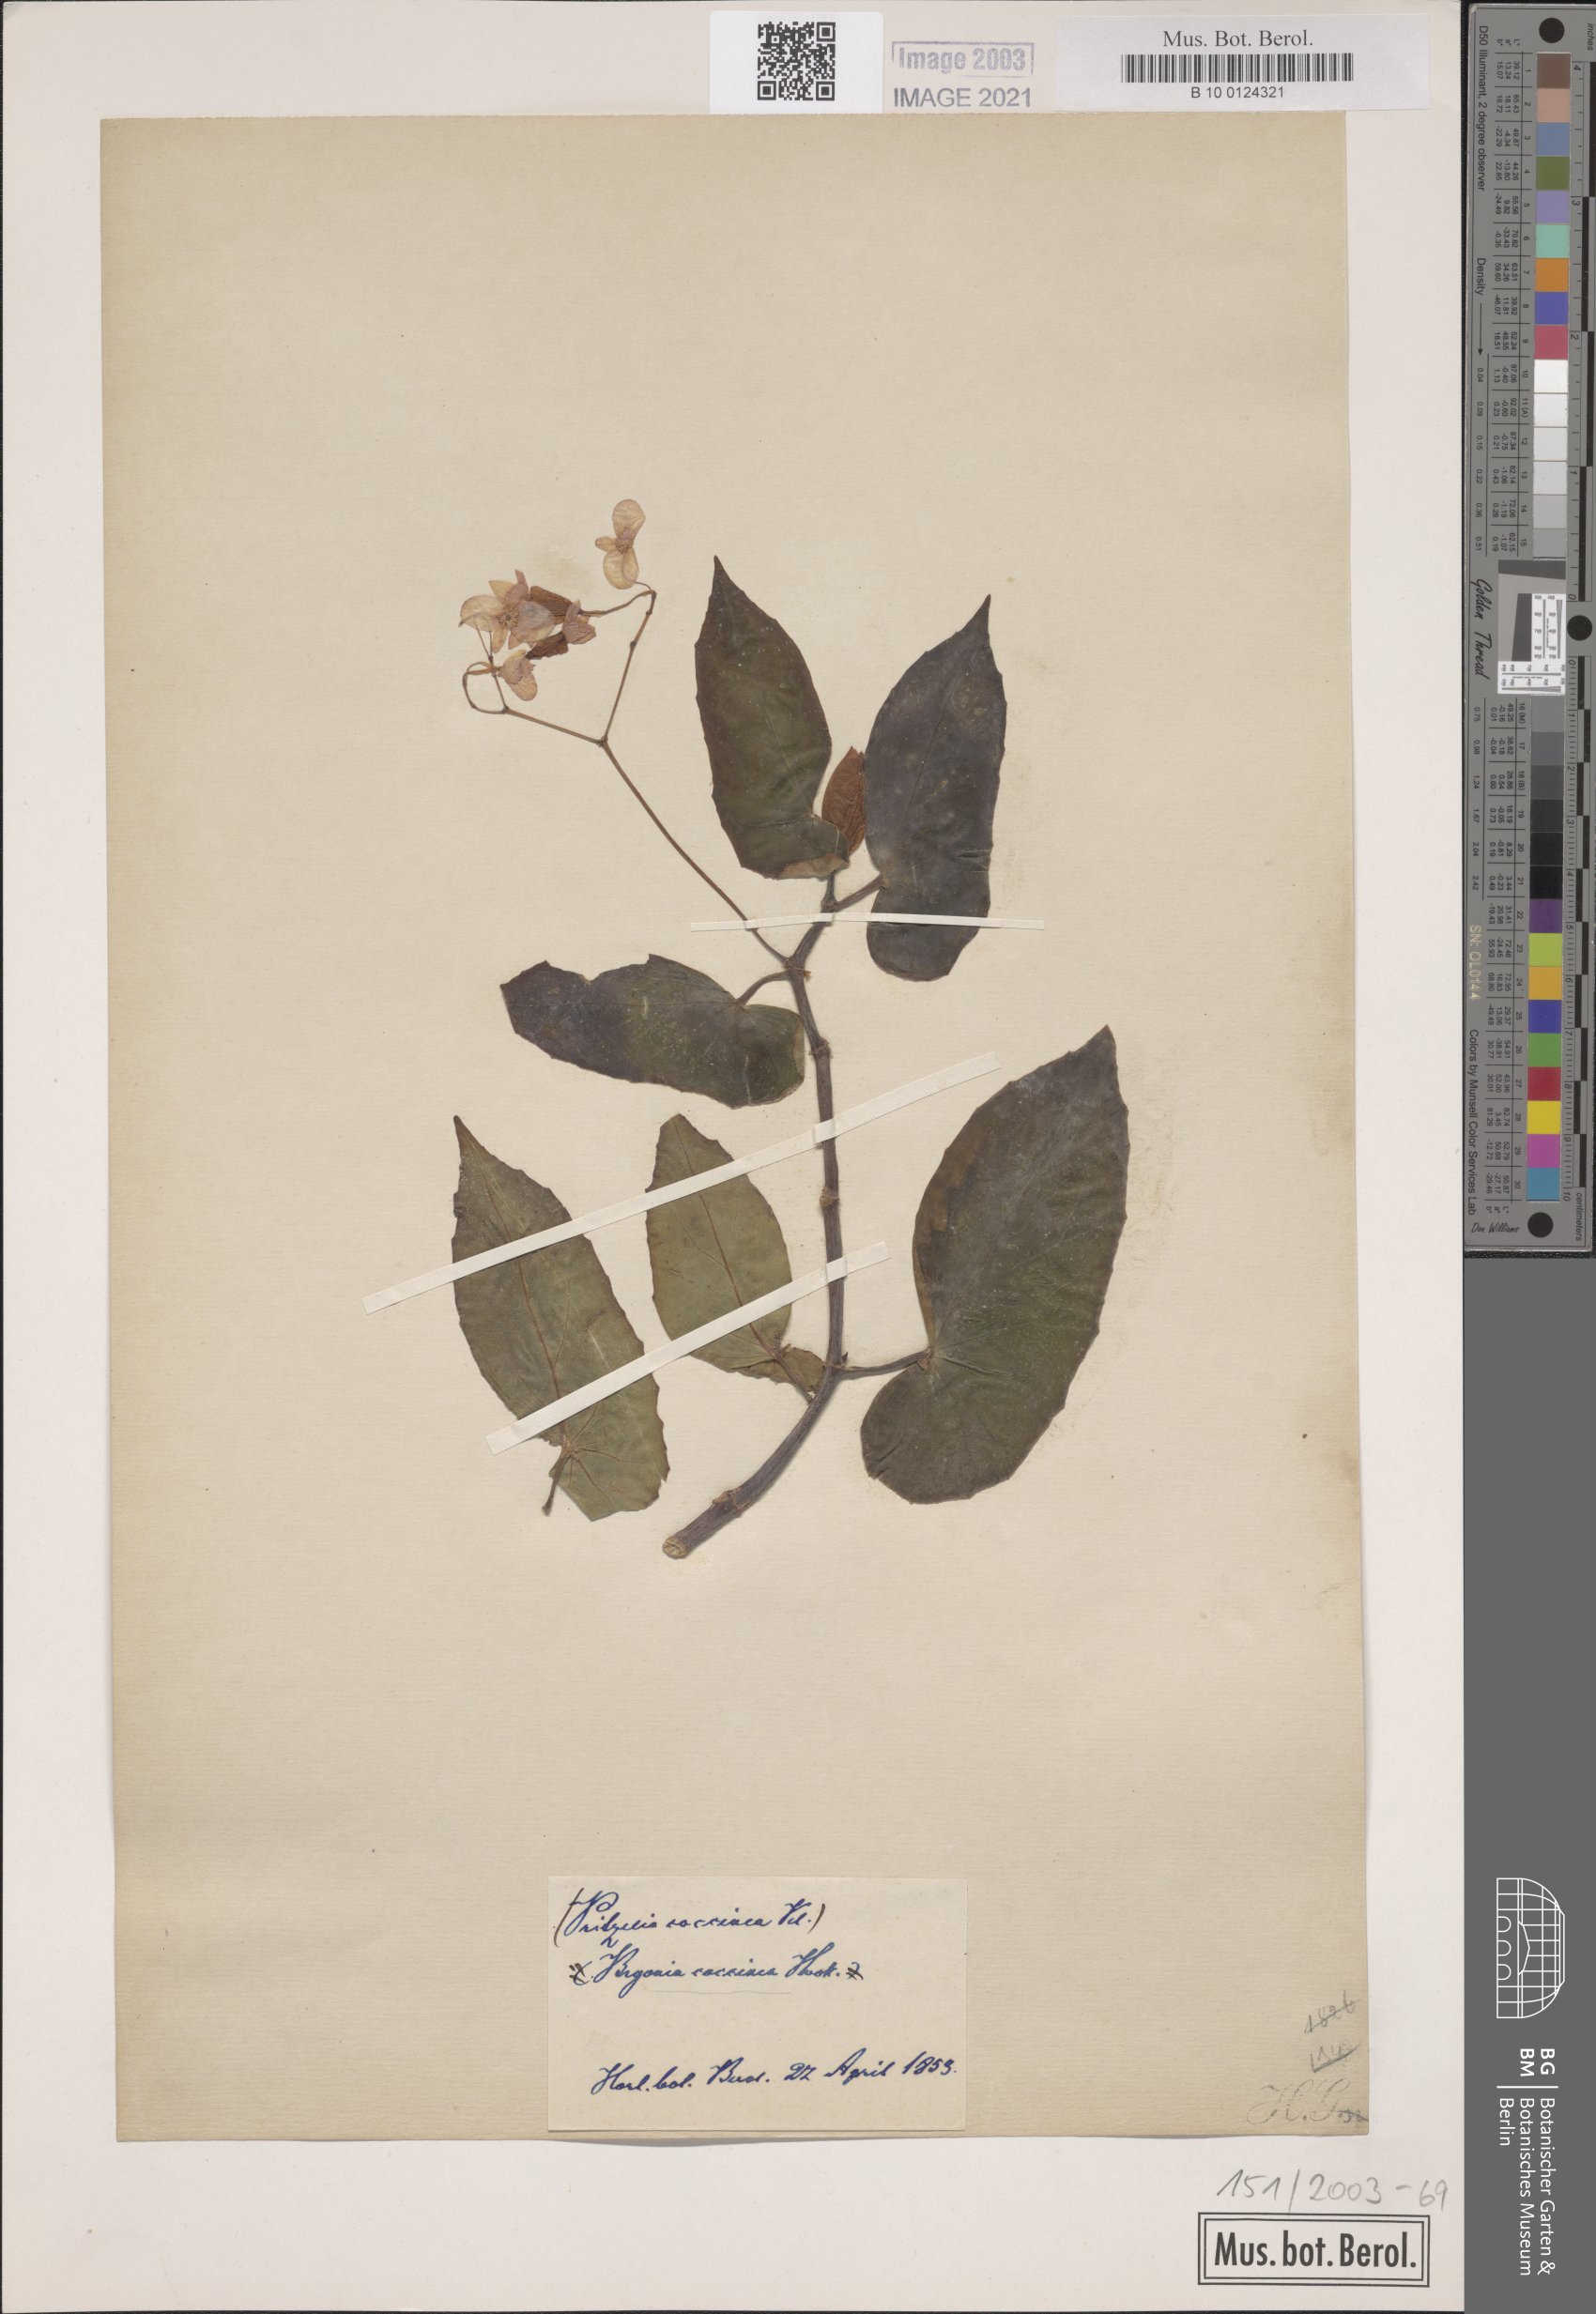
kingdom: Plantae
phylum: Tracheophyta
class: Magnoliopsida
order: Cucurbitales
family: Begoniaceae
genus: Begonia
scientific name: Begonia coccinea
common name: Angel-wing begonia
